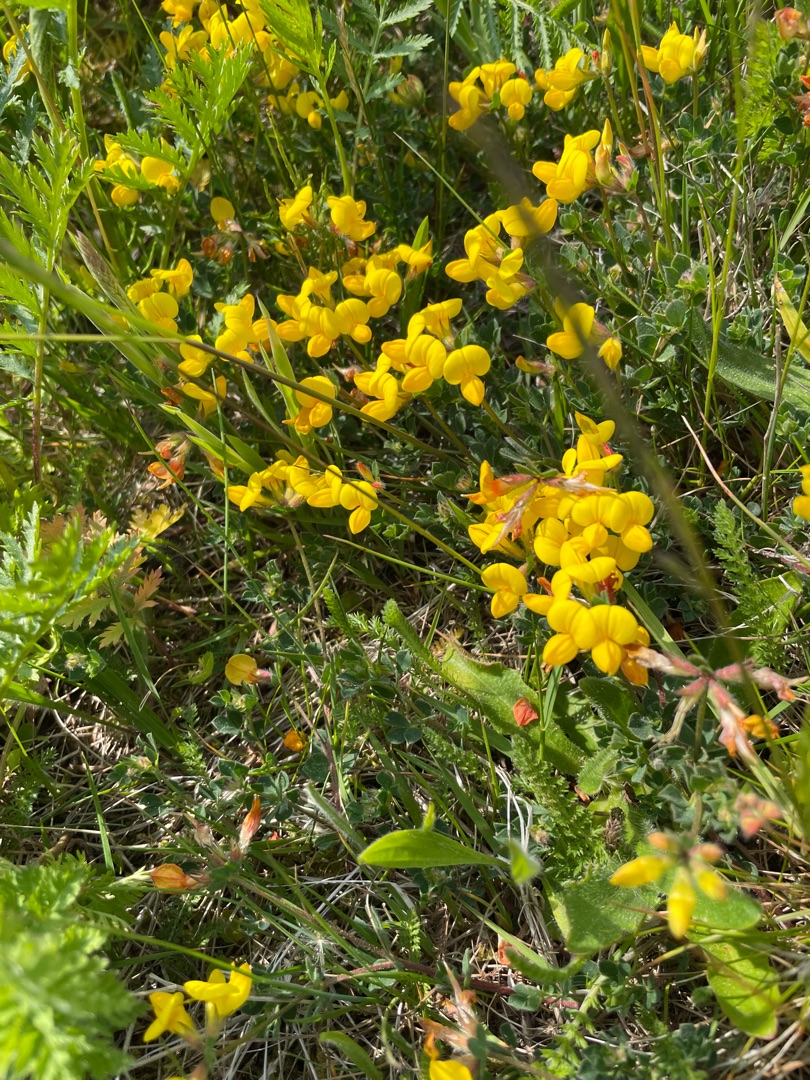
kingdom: Plantae
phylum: Tracheophyta
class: Magnoliopsida
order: Fabales
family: Fabaceae
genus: Lotus
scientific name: Lotus corniculatus
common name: Almindelig kællingetand
